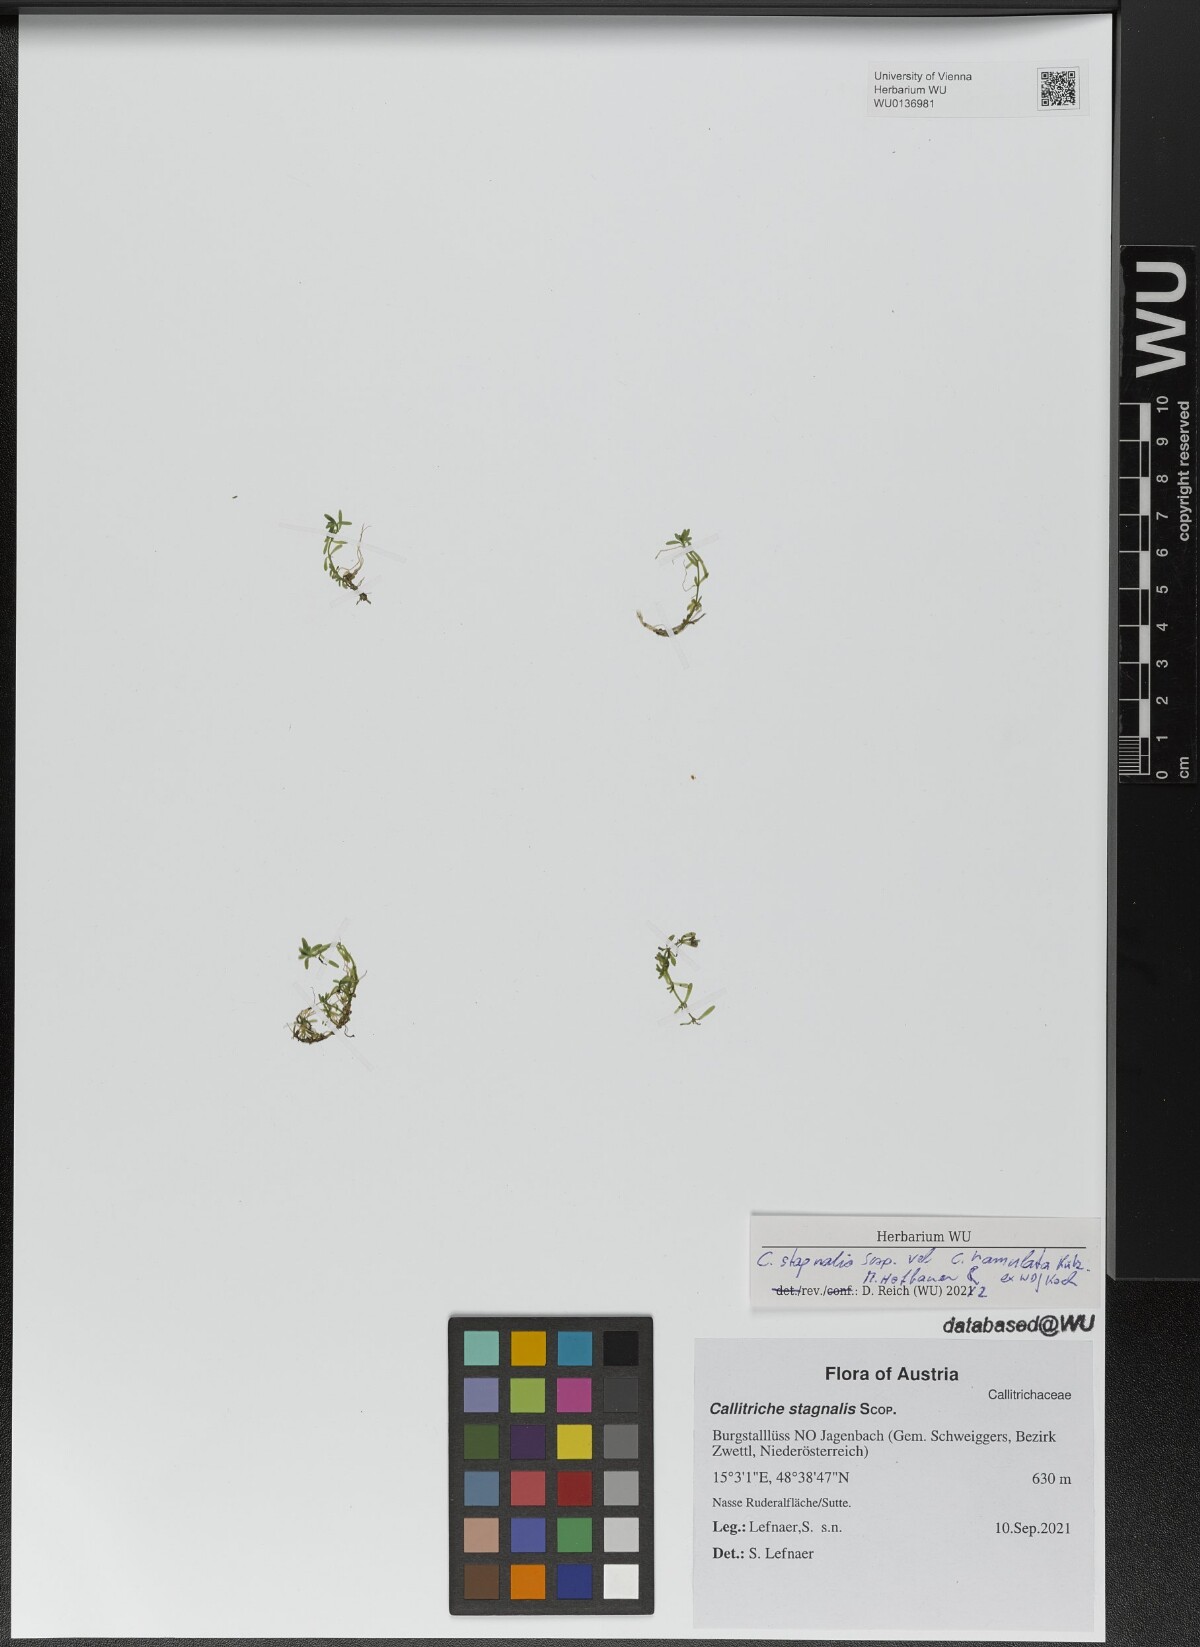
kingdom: Plantae
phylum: Tracheophyta
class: Magnoliopsida
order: Lamiales
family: Plantaginaceae
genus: Callitriche
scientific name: Callitriche stagnalis
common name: Common water-starwort
